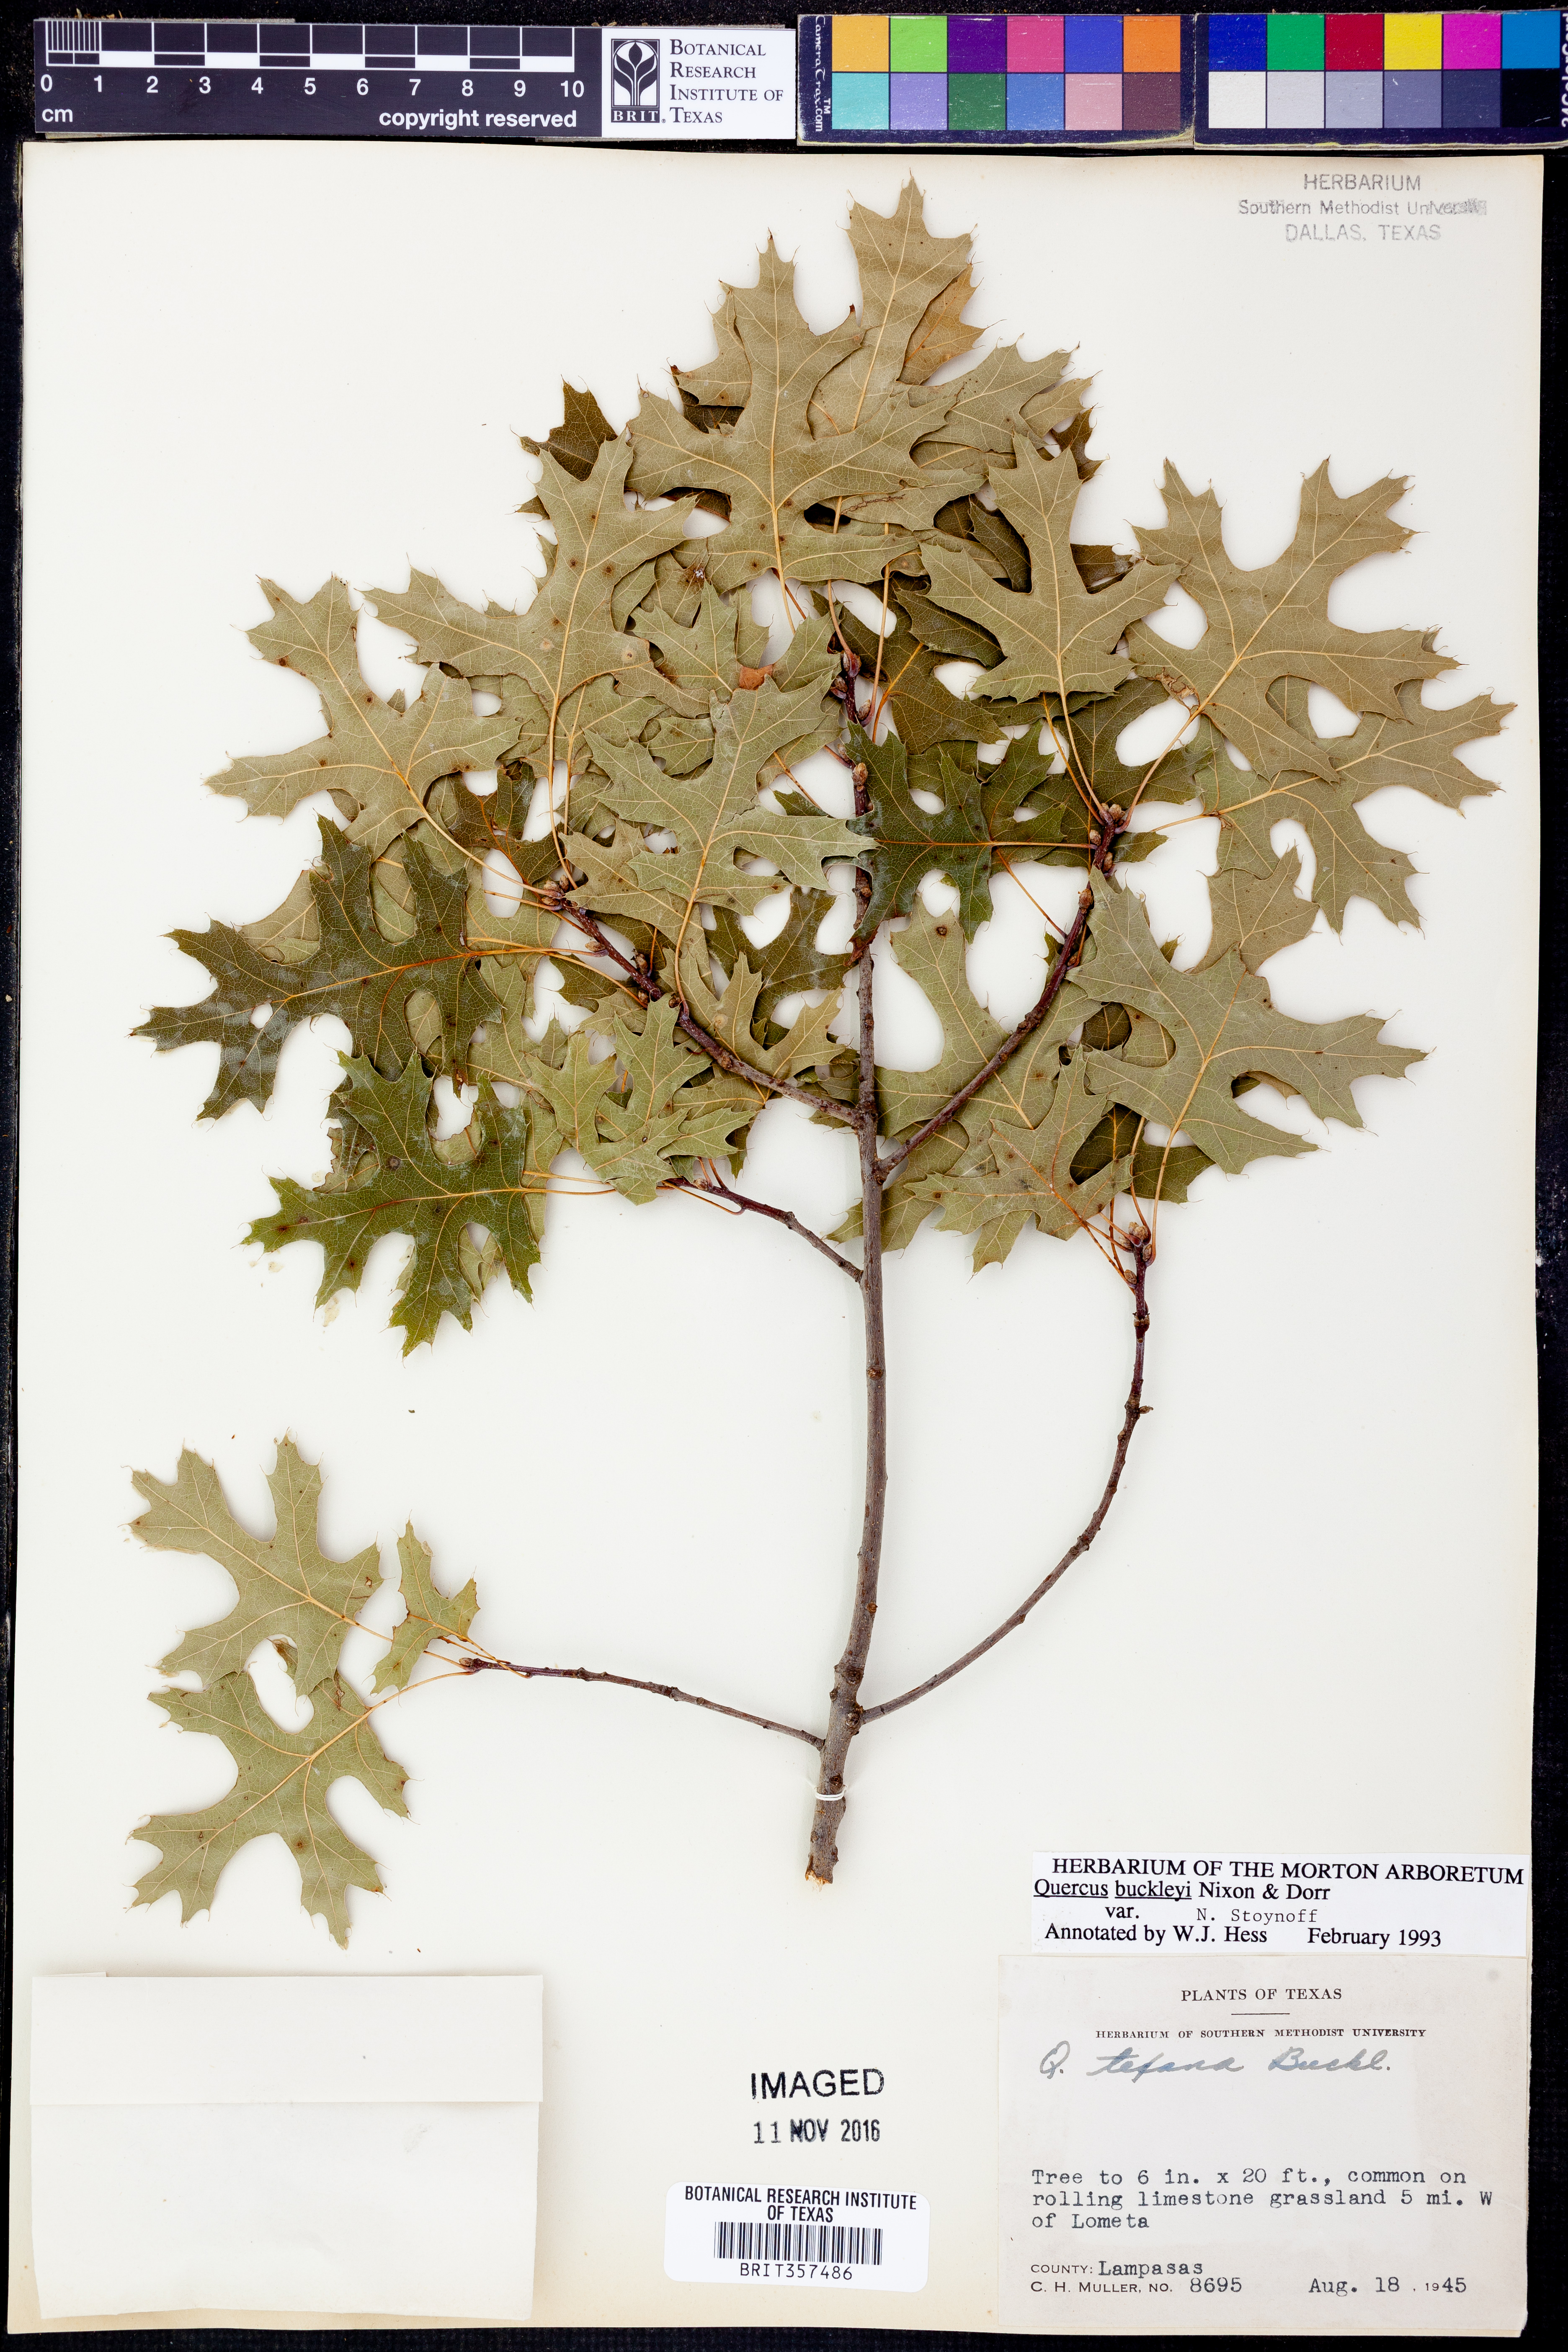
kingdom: Plantae
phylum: Tracheophyta
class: Magnoliopsida
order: Fagales
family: Fagaceae
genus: Quercus
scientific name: Quercus buckleyi
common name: Buckley oak
